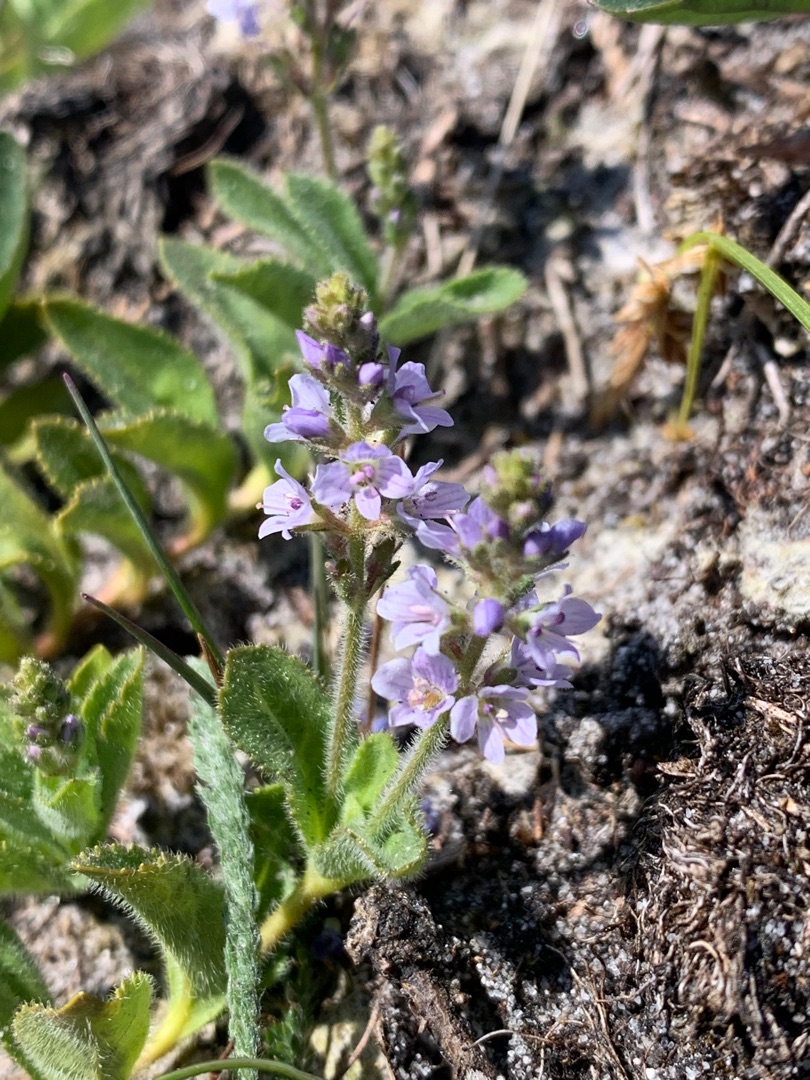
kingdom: Plantae
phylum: Tracheophyta
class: Magnoliopsida
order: Lamiales
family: Plantaginaceae
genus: Veronica
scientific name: Veronica officinalis
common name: Læge-ærenpris
